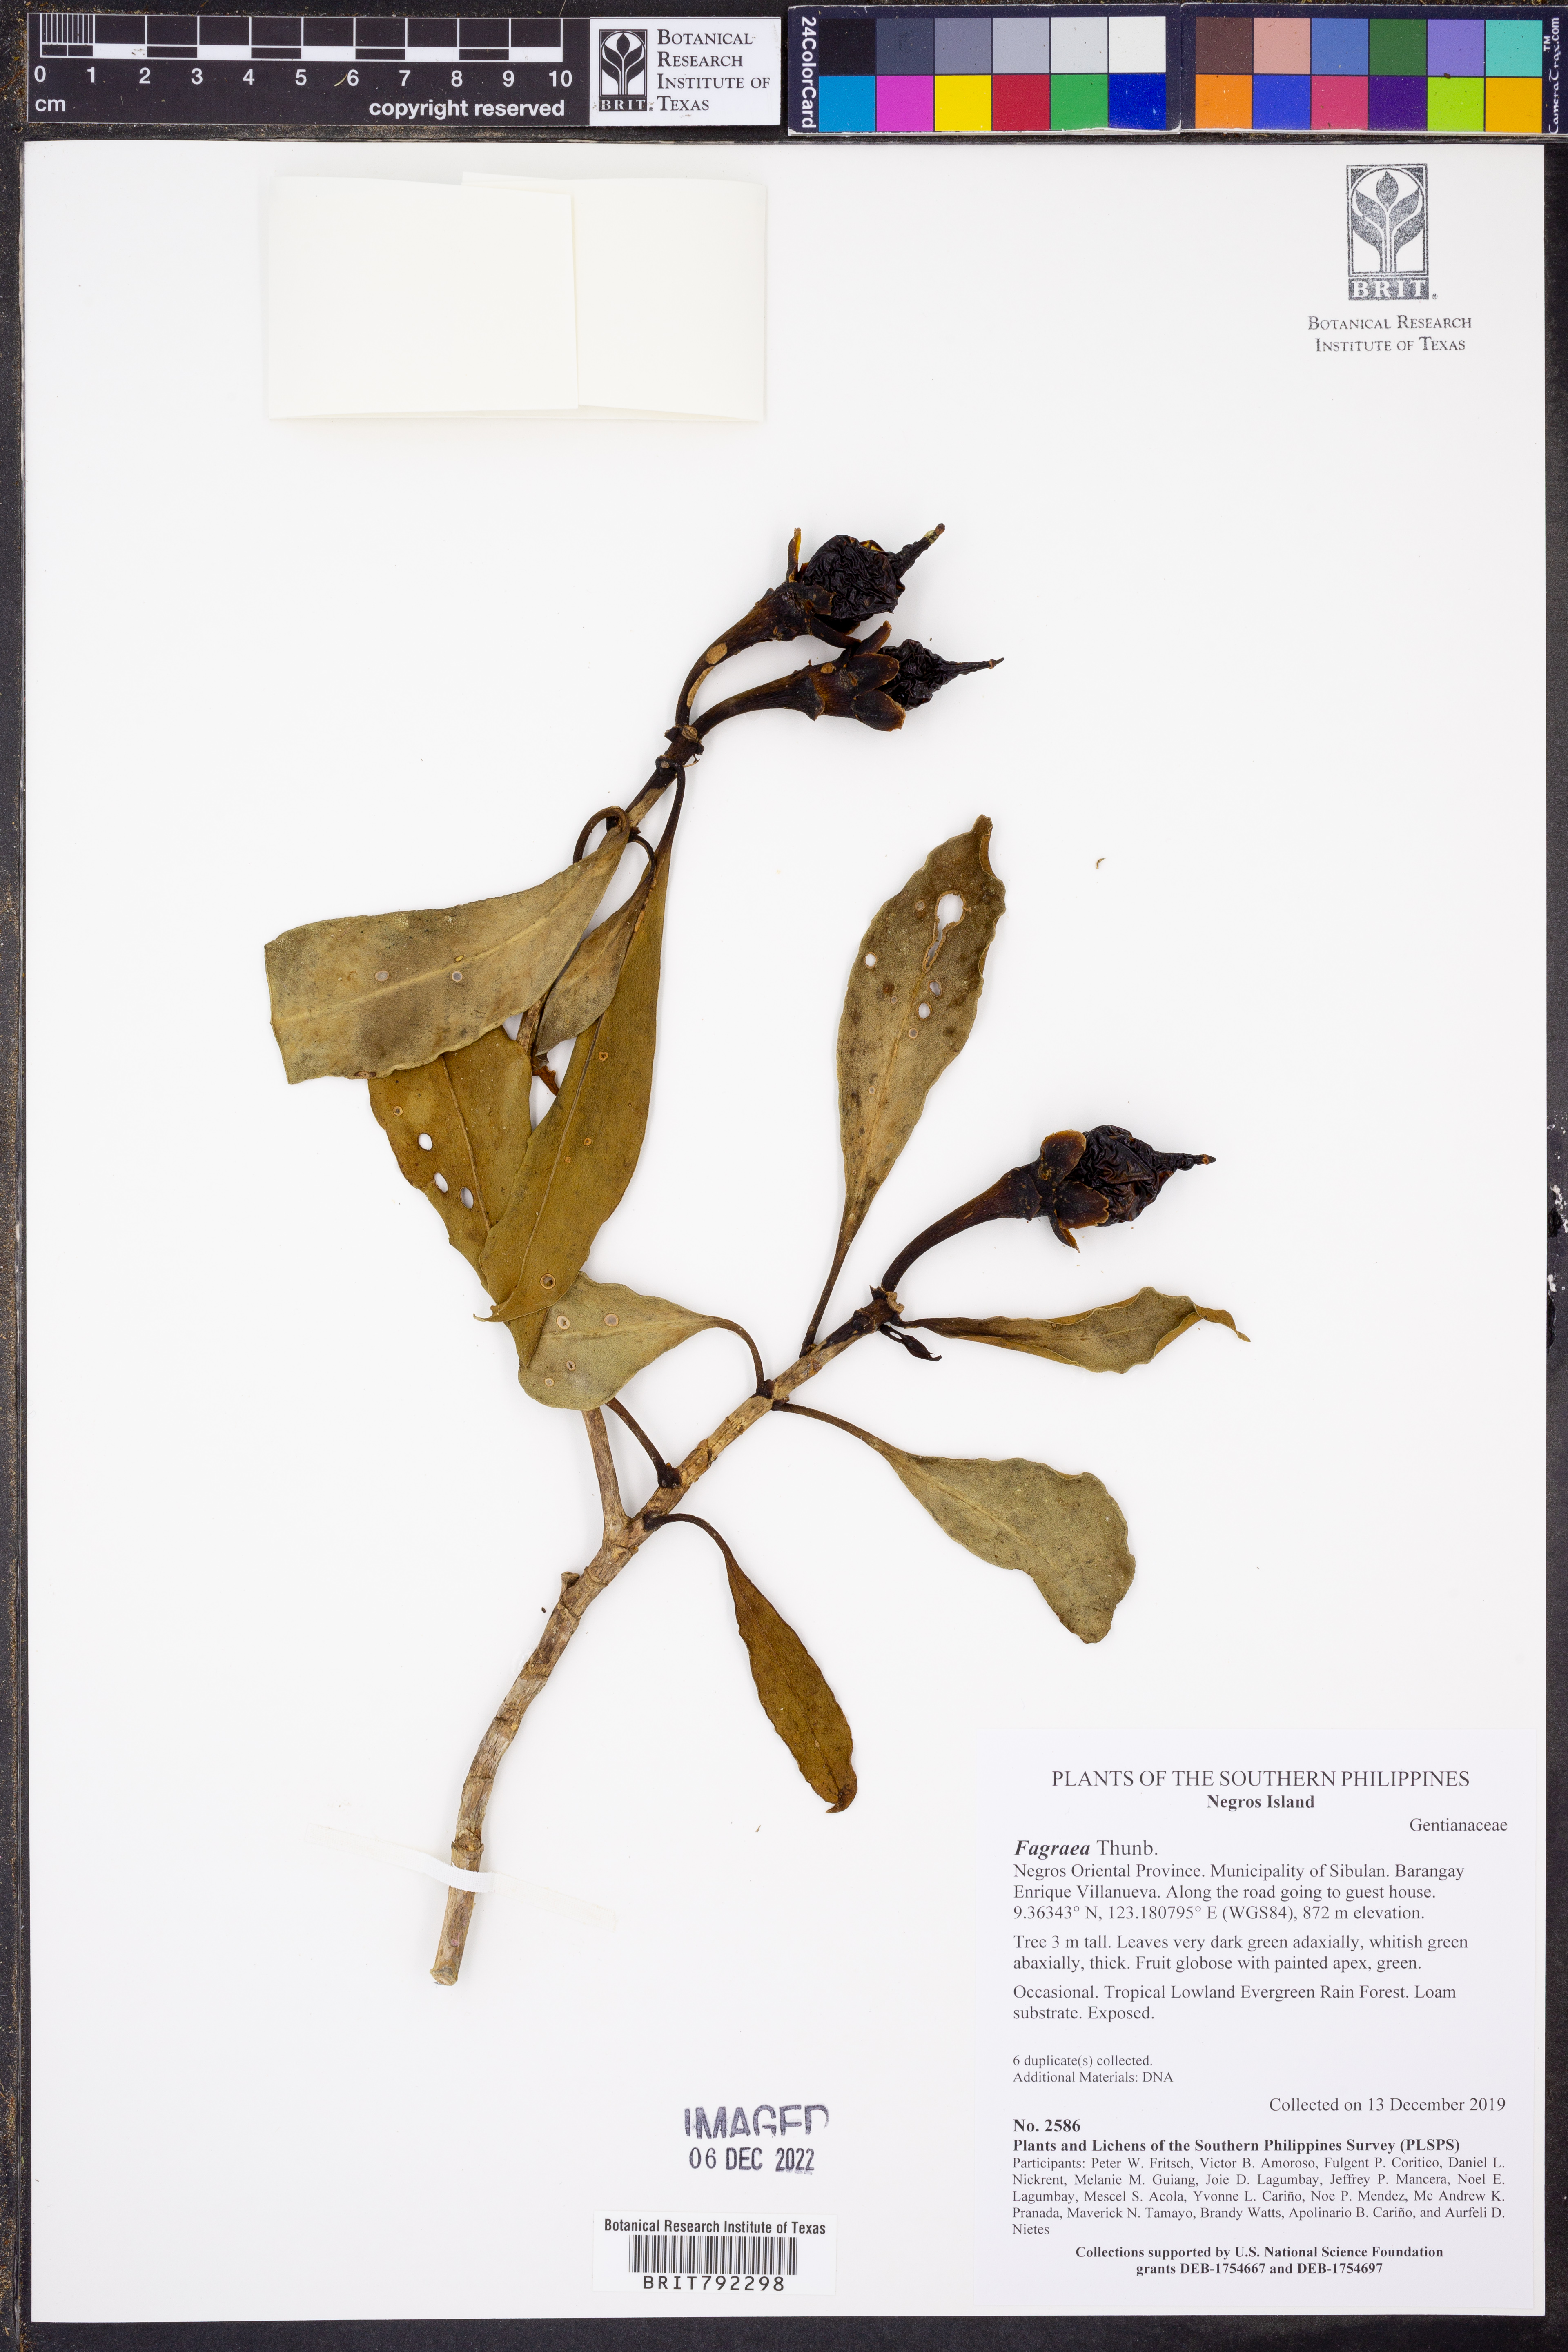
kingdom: Plantae
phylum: Tracheophyta
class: Magnoliopsida
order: Gentianales
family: Gentianaceae
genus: Fagraea
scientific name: Fagraea
